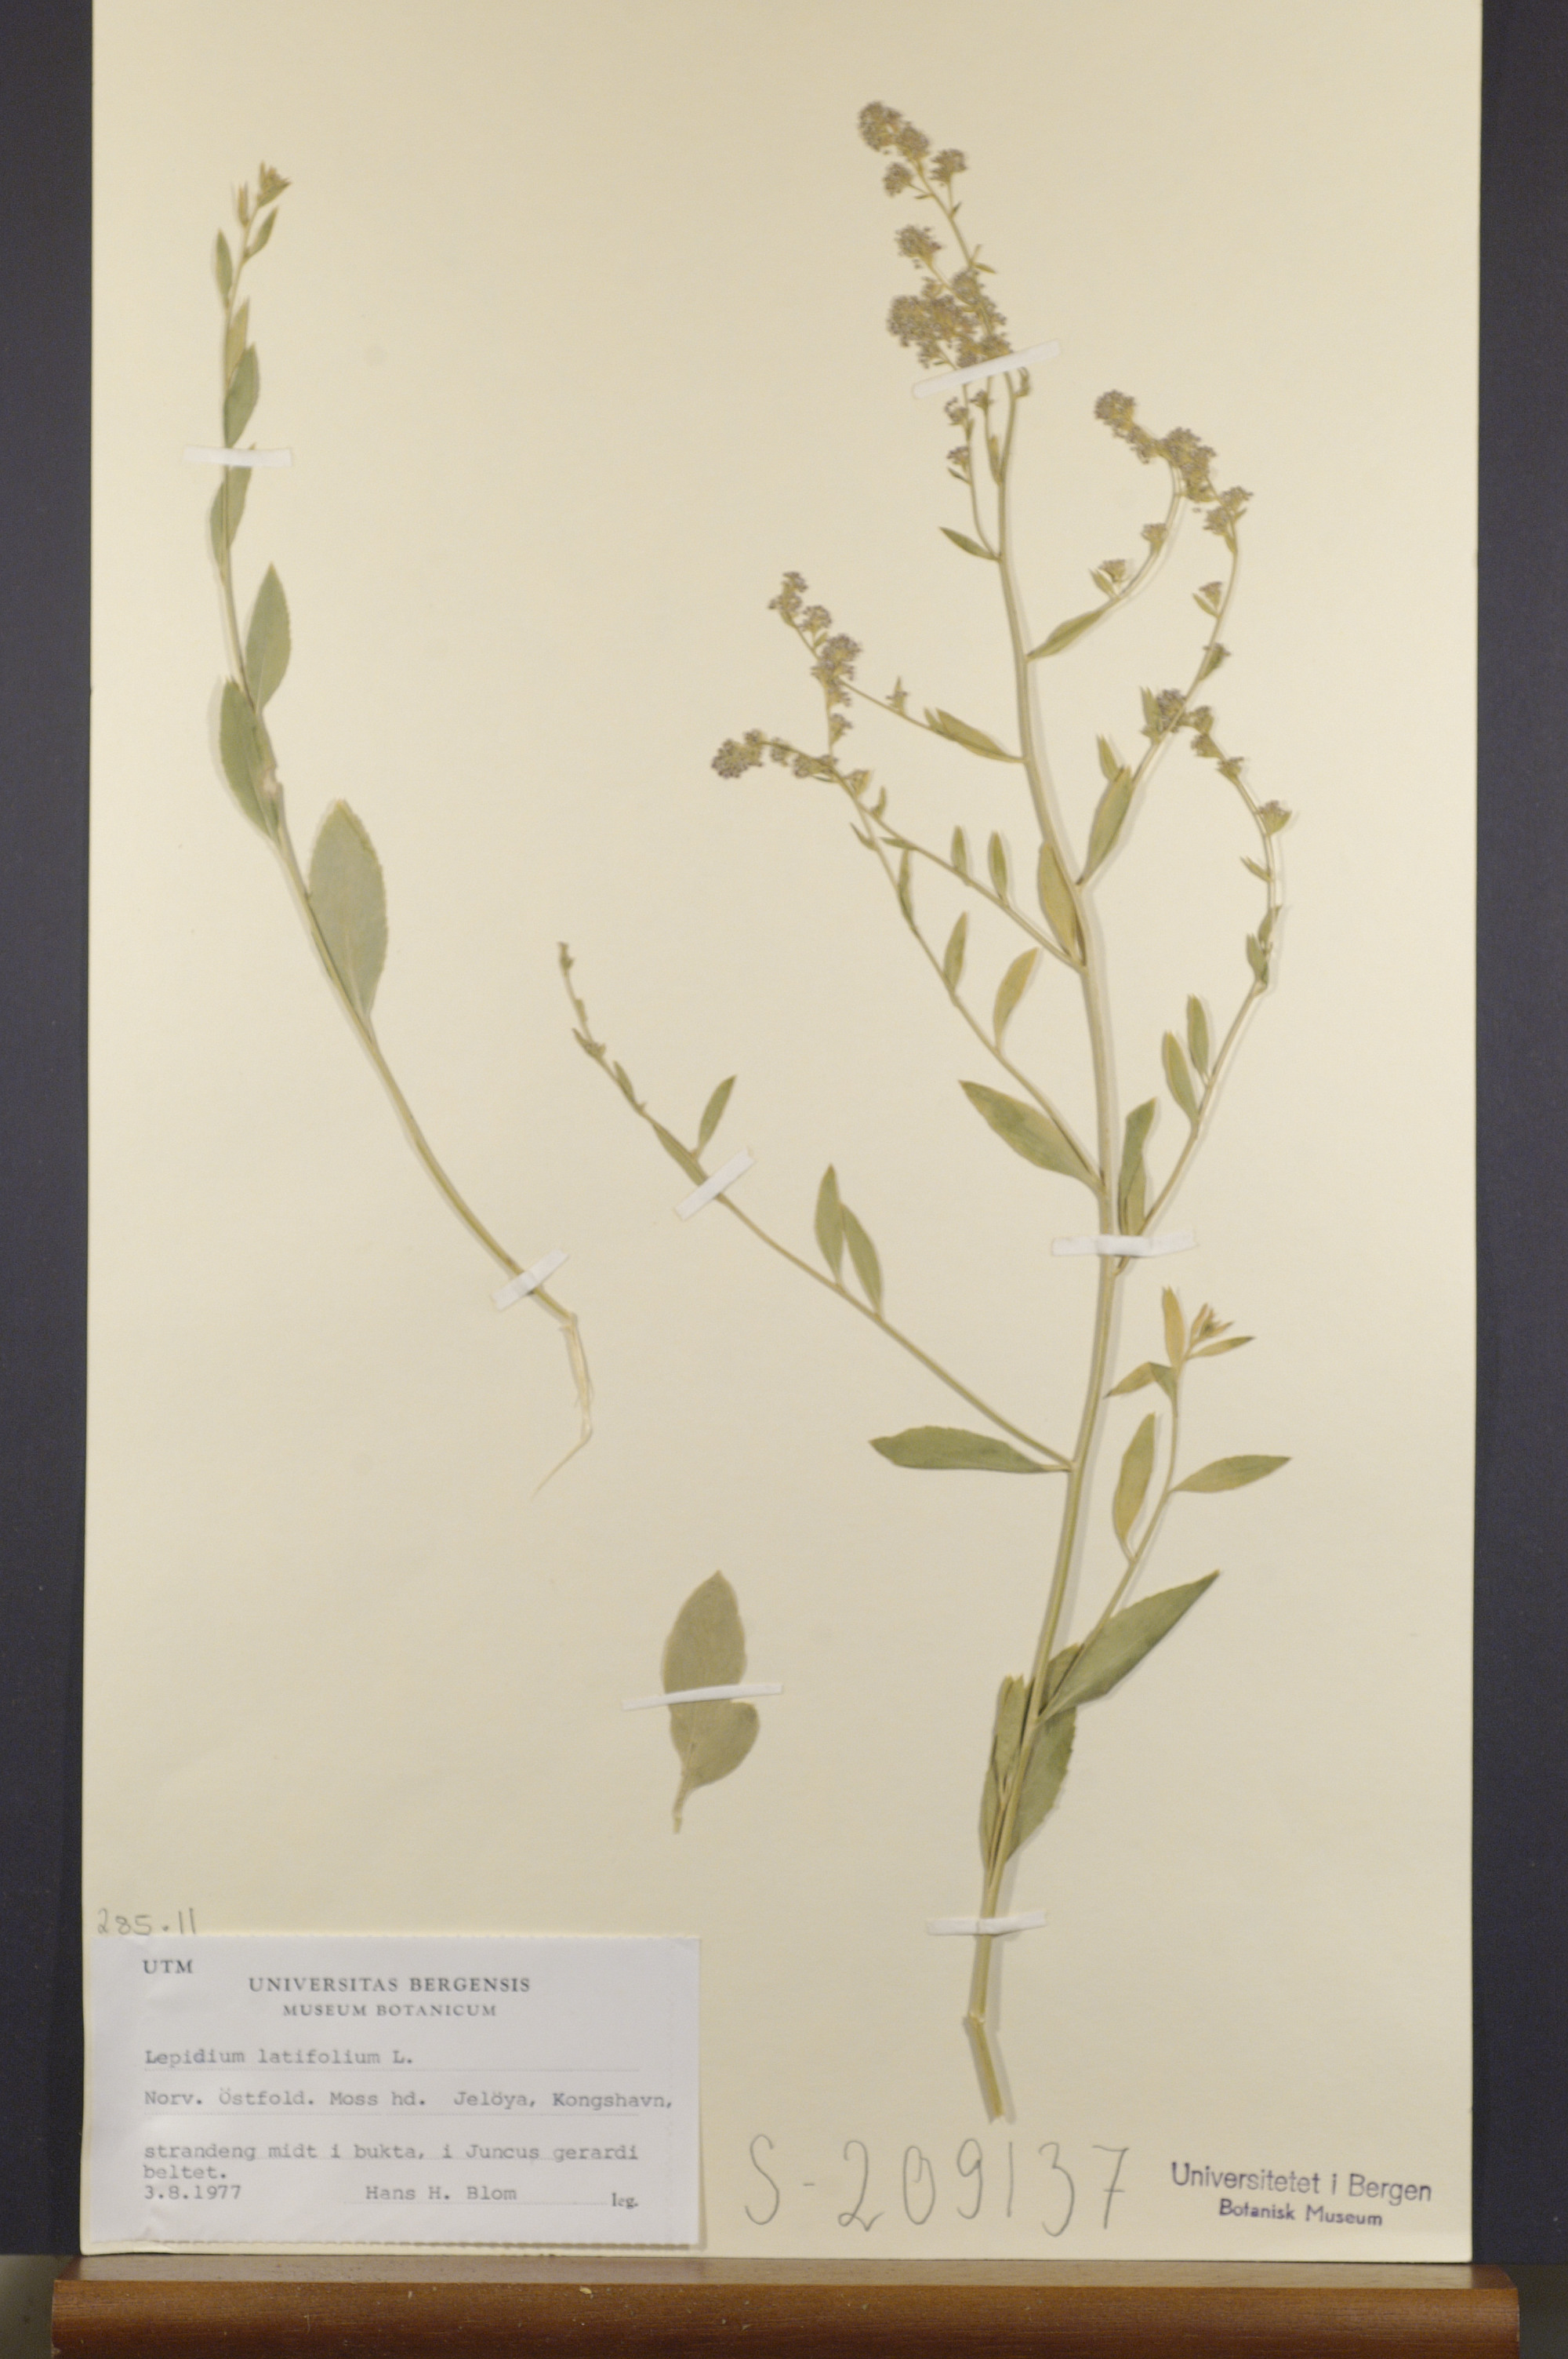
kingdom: Plantae
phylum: Tracheophyta
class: Magnoliopsida
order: Brassicales
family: Brassicaceae
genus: Lepidium
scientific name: Lepidium latifolium
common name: Dittander
